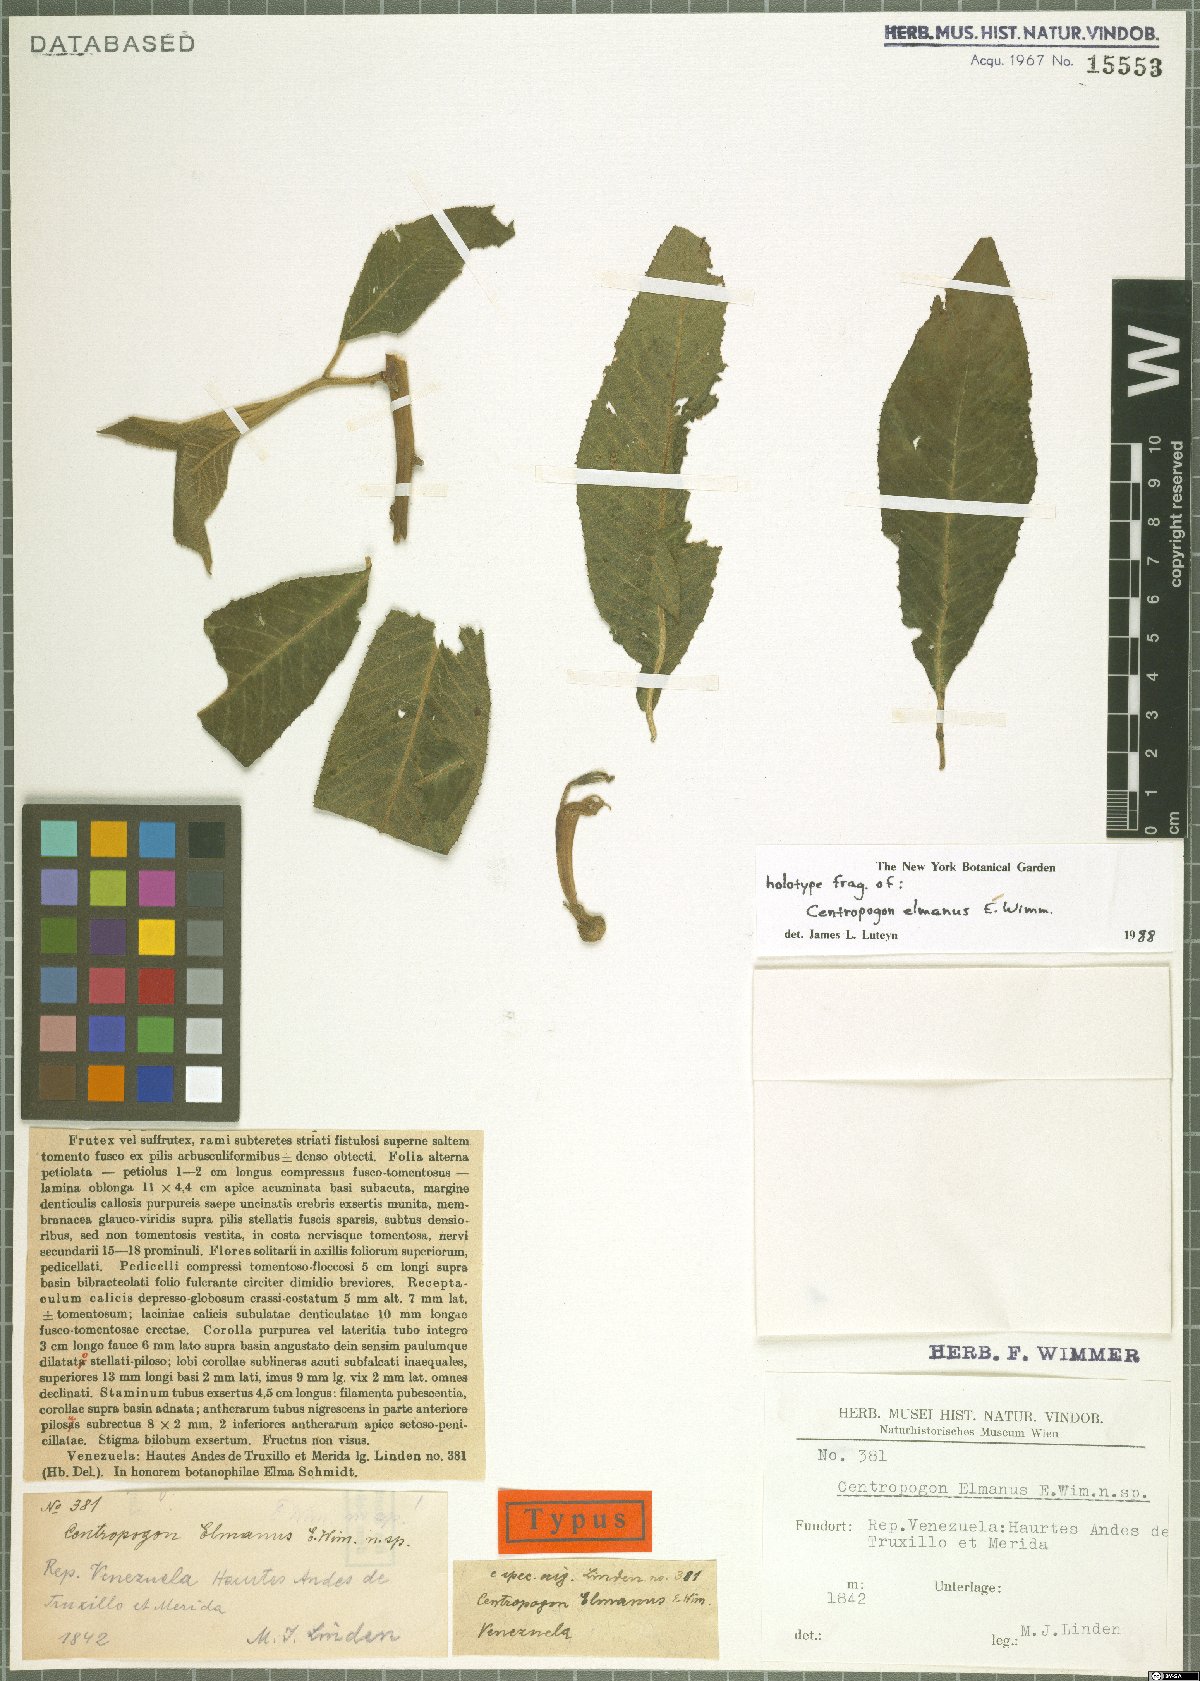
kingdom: Plantae
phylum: Tracheophyta
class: Magnoliopsida
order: Asterales
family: Campanulaceae
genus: Centropogon
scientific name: Centropogon elmanus
